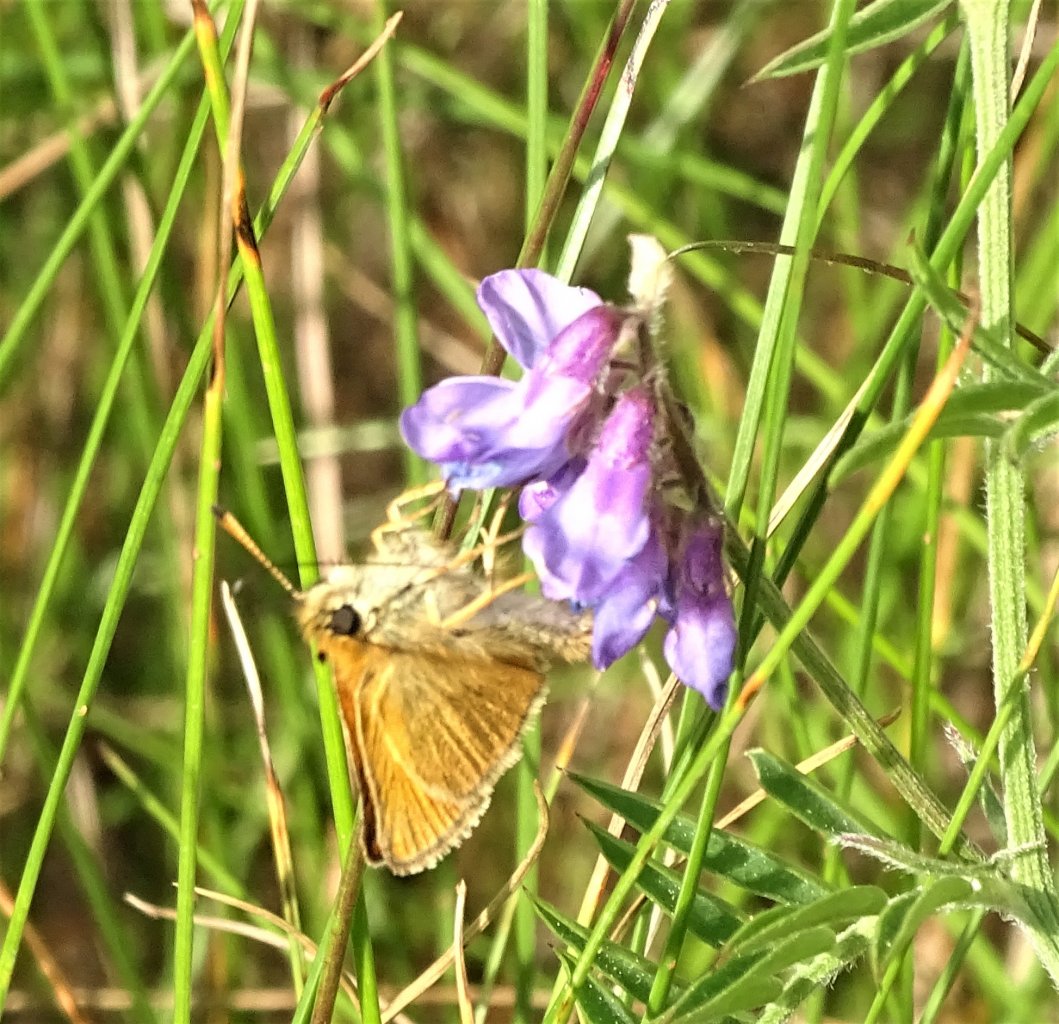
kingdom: Animalia
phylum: Arthropoda
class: Insecta
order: Lepidoptera
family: Hesperiidae
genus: Thymelicus
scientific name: Thymelicus lineola
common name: European Skipper
